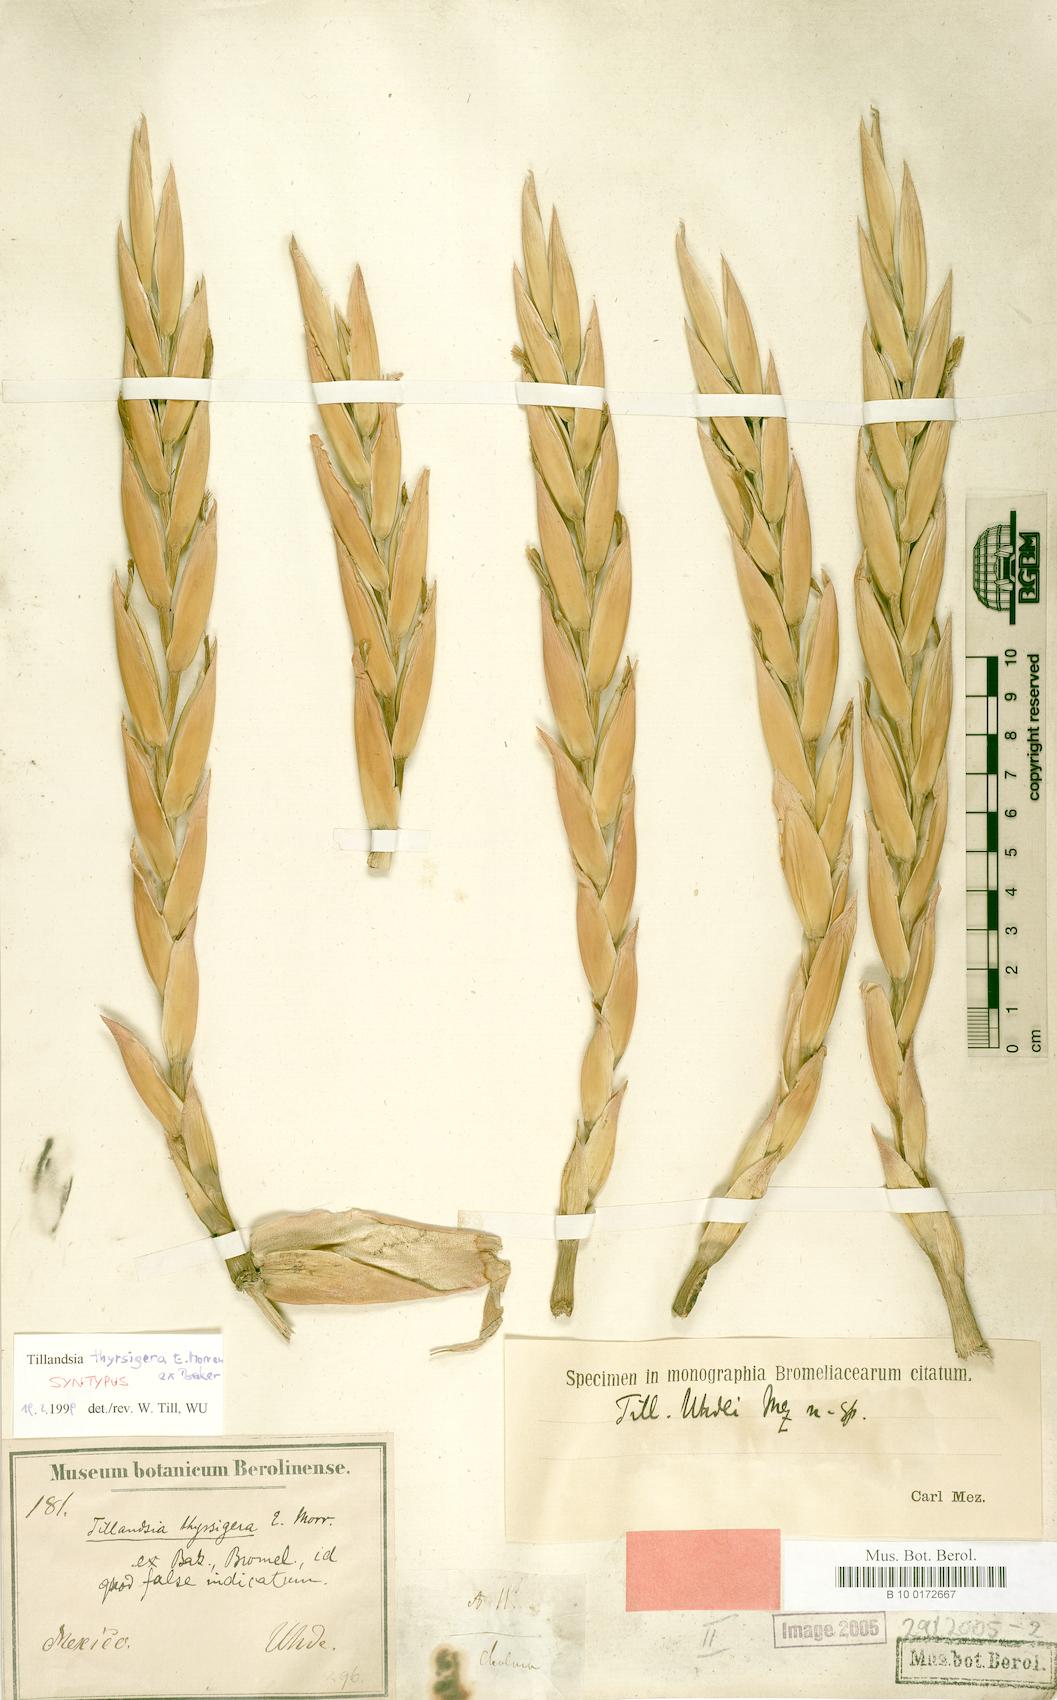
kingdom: Plantae
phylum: Tracheophyta
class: Liliopsida
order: Poales
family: Bromeliaceae
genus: Tillandsia
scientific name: Tillandsia thyrsigera
